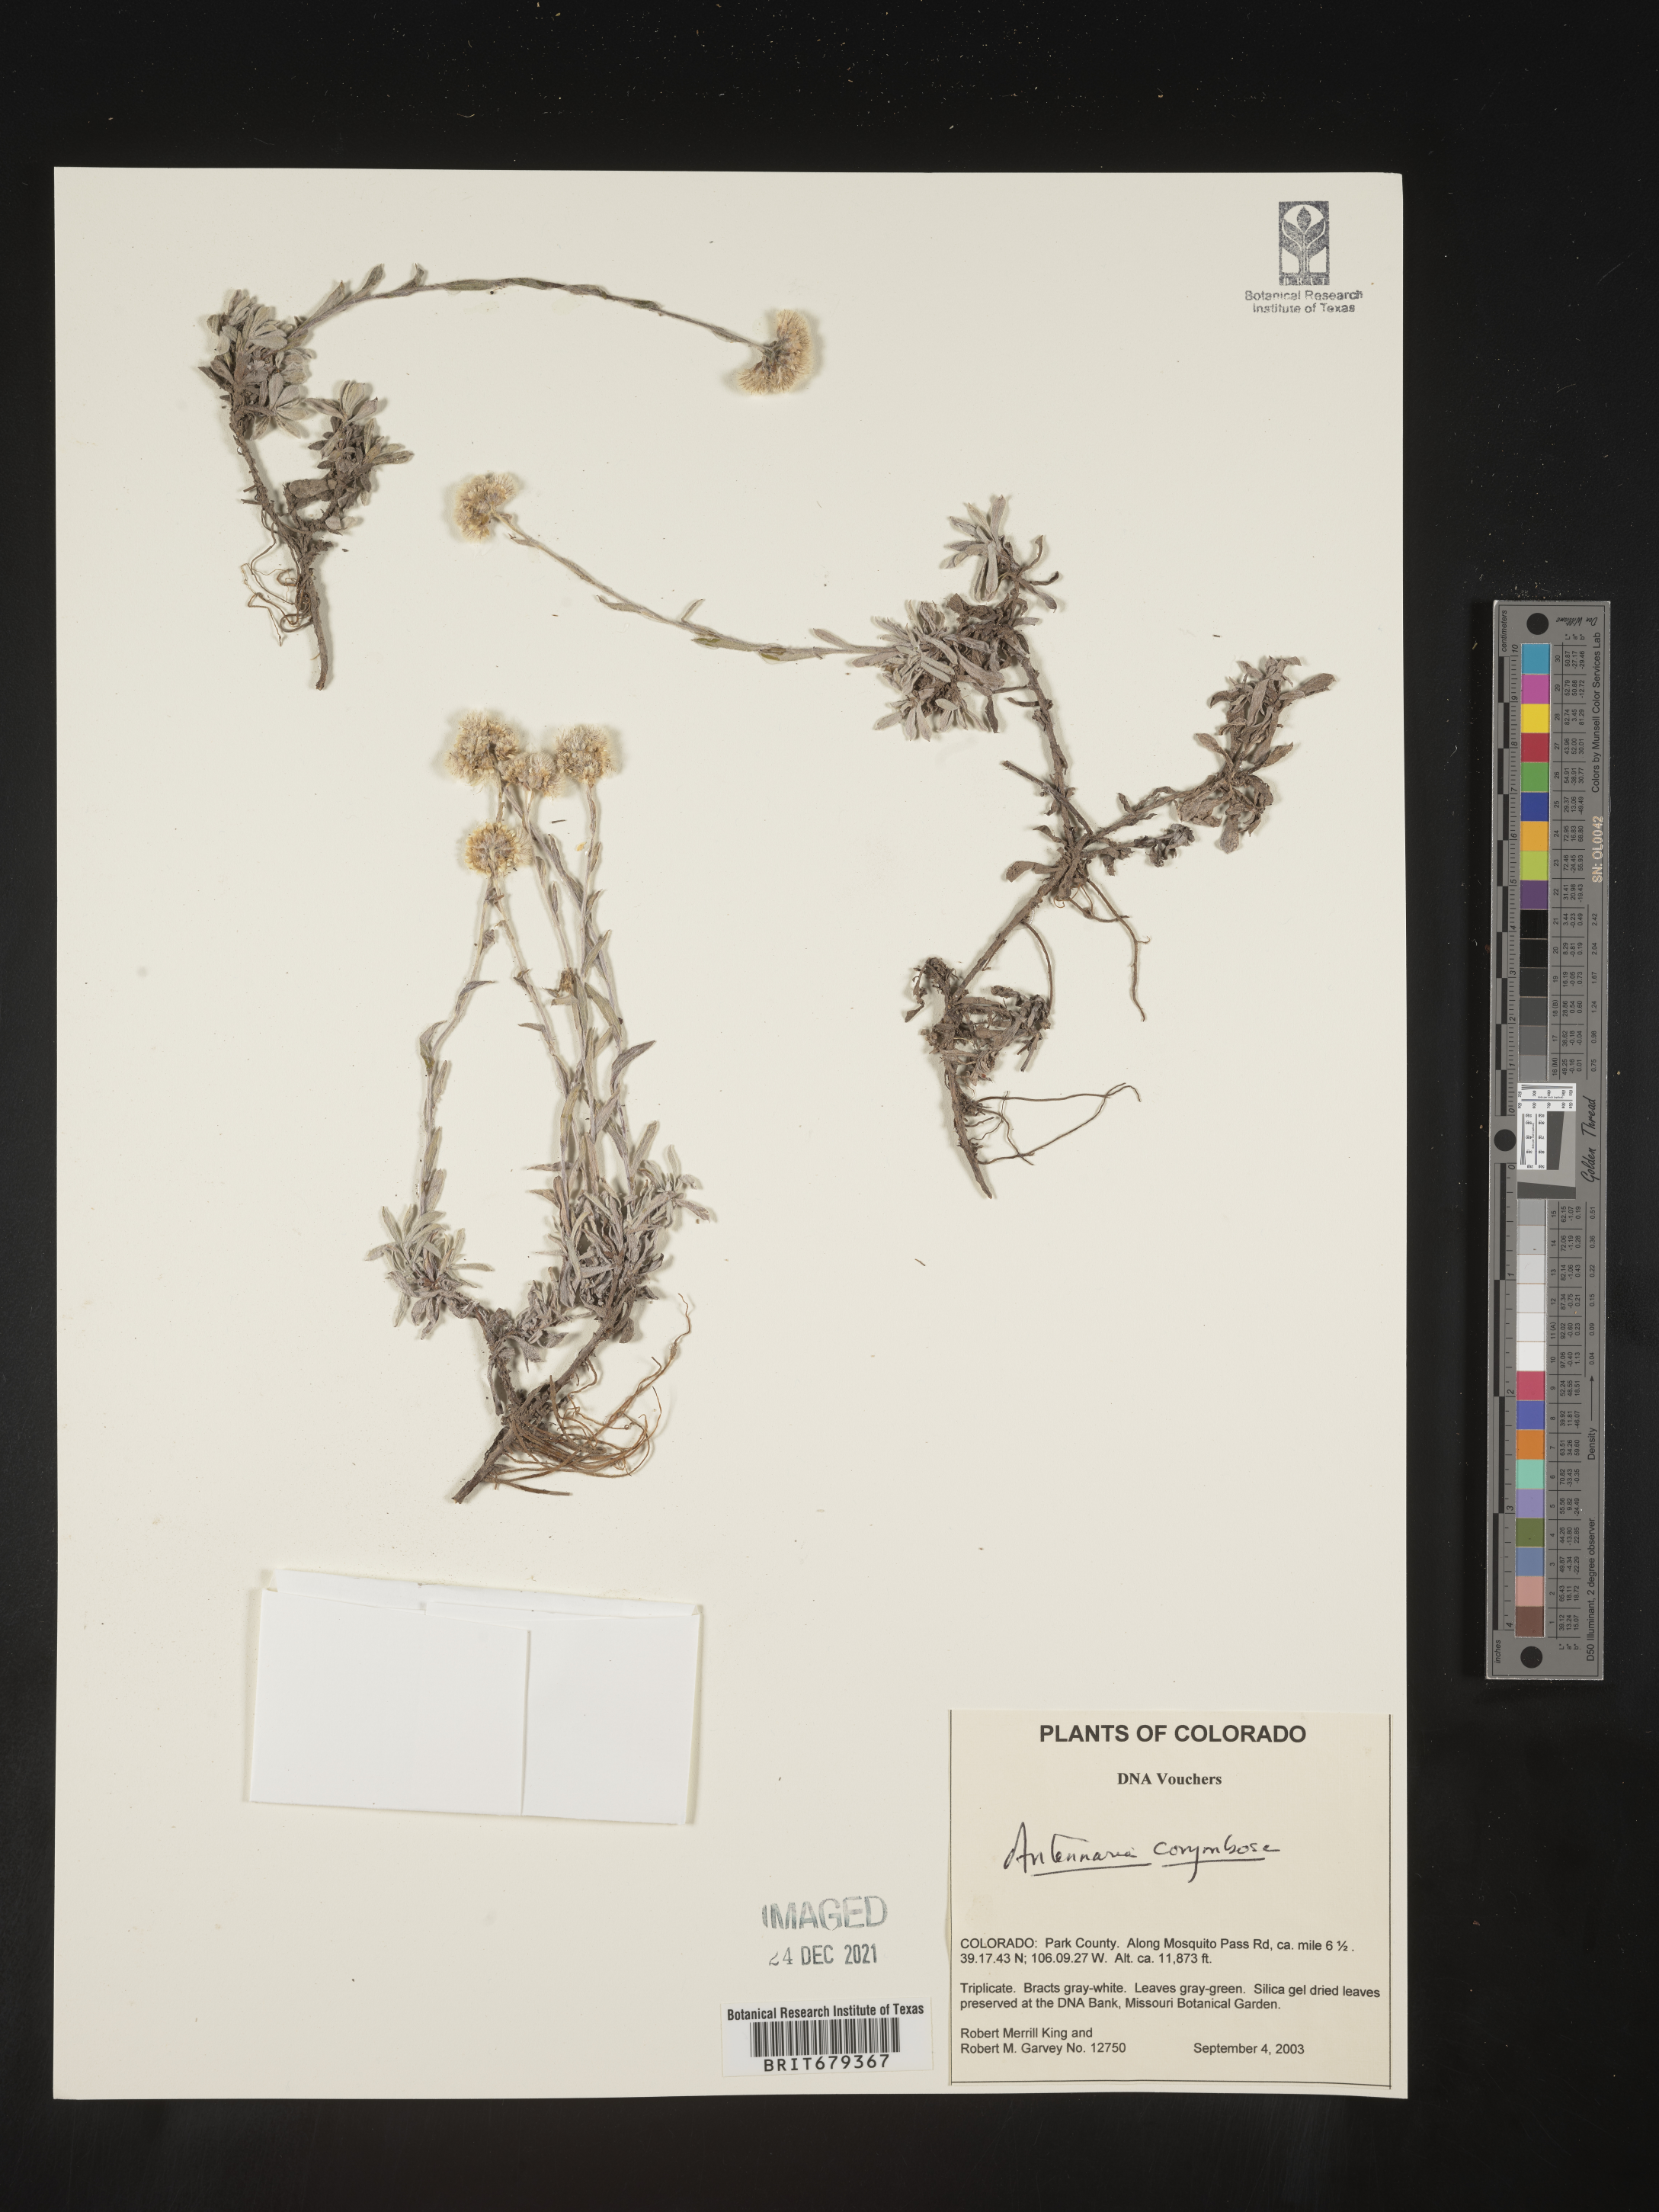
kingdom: Plantae
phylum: Tracheophyta
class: Magnoliopsida
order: Asterales
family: Asteraceae
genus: Antennaria
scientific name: Antennaria corymbosa
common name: Meadow pussytoes
